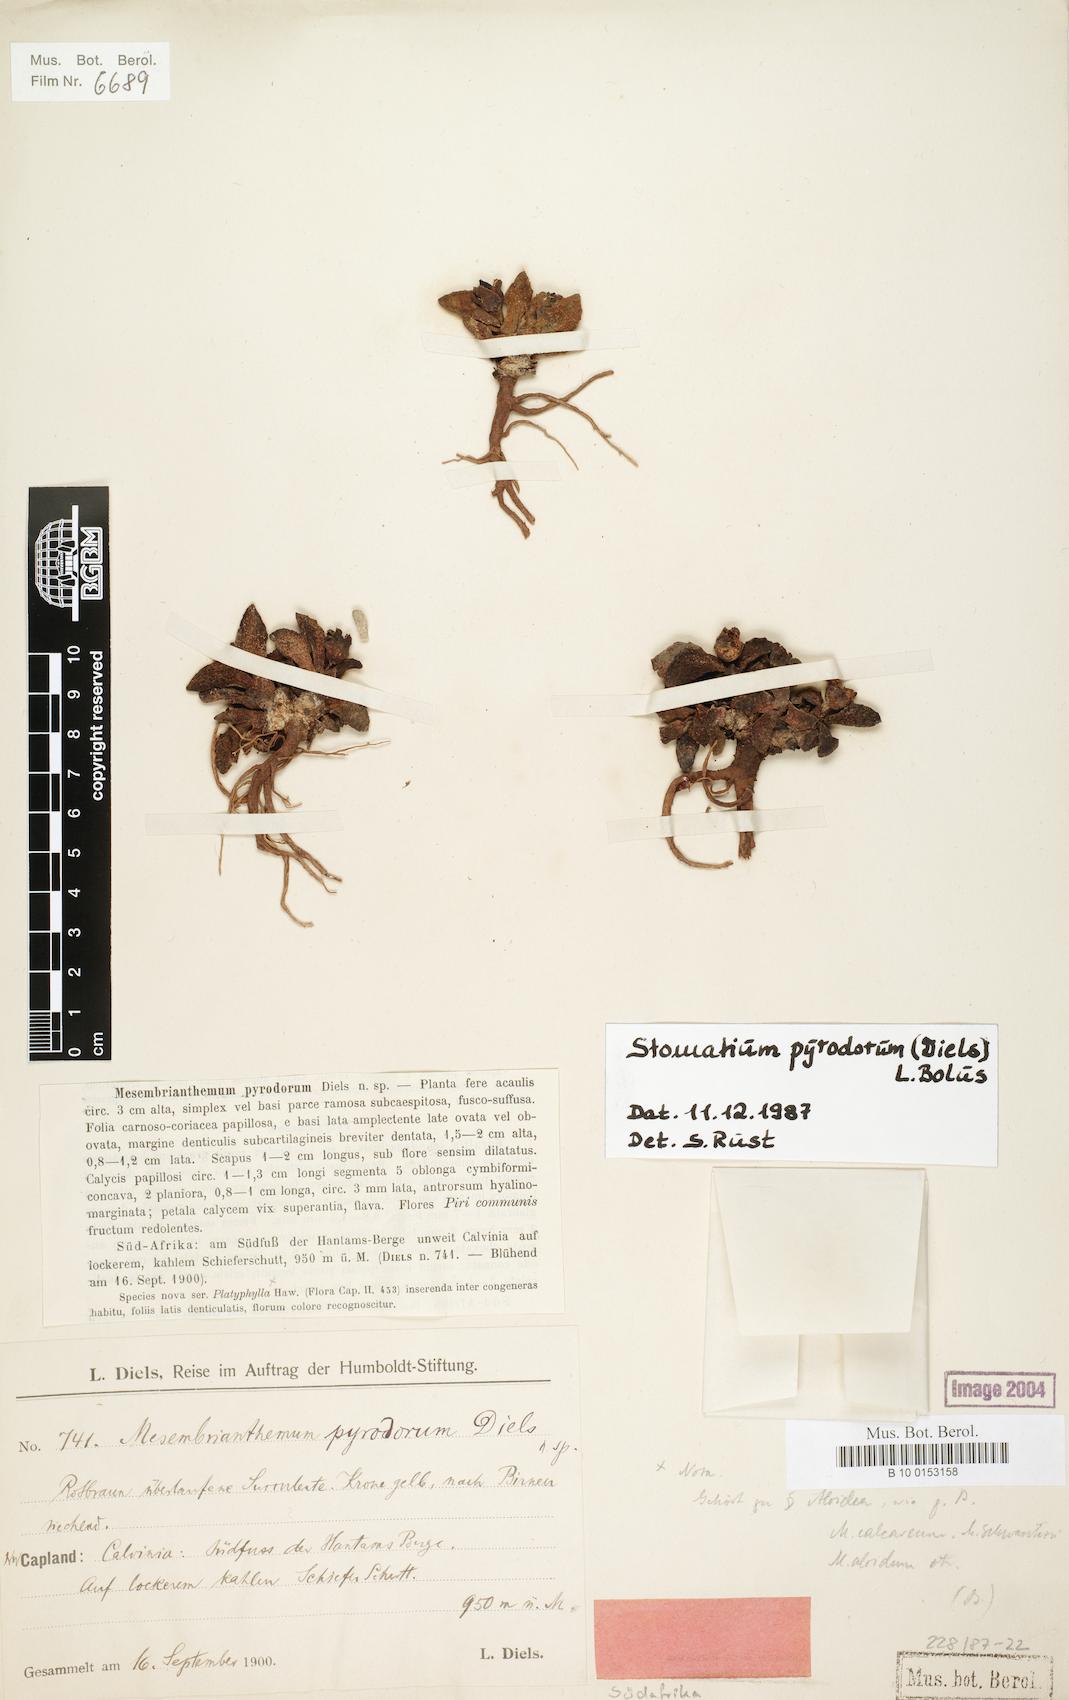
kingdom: Plantae
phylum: Tracheophyta
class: Magnoliopsida
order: Caryophyllales
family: Aizoaceae
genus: Stomatium
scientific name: Stomatium mustelinum
